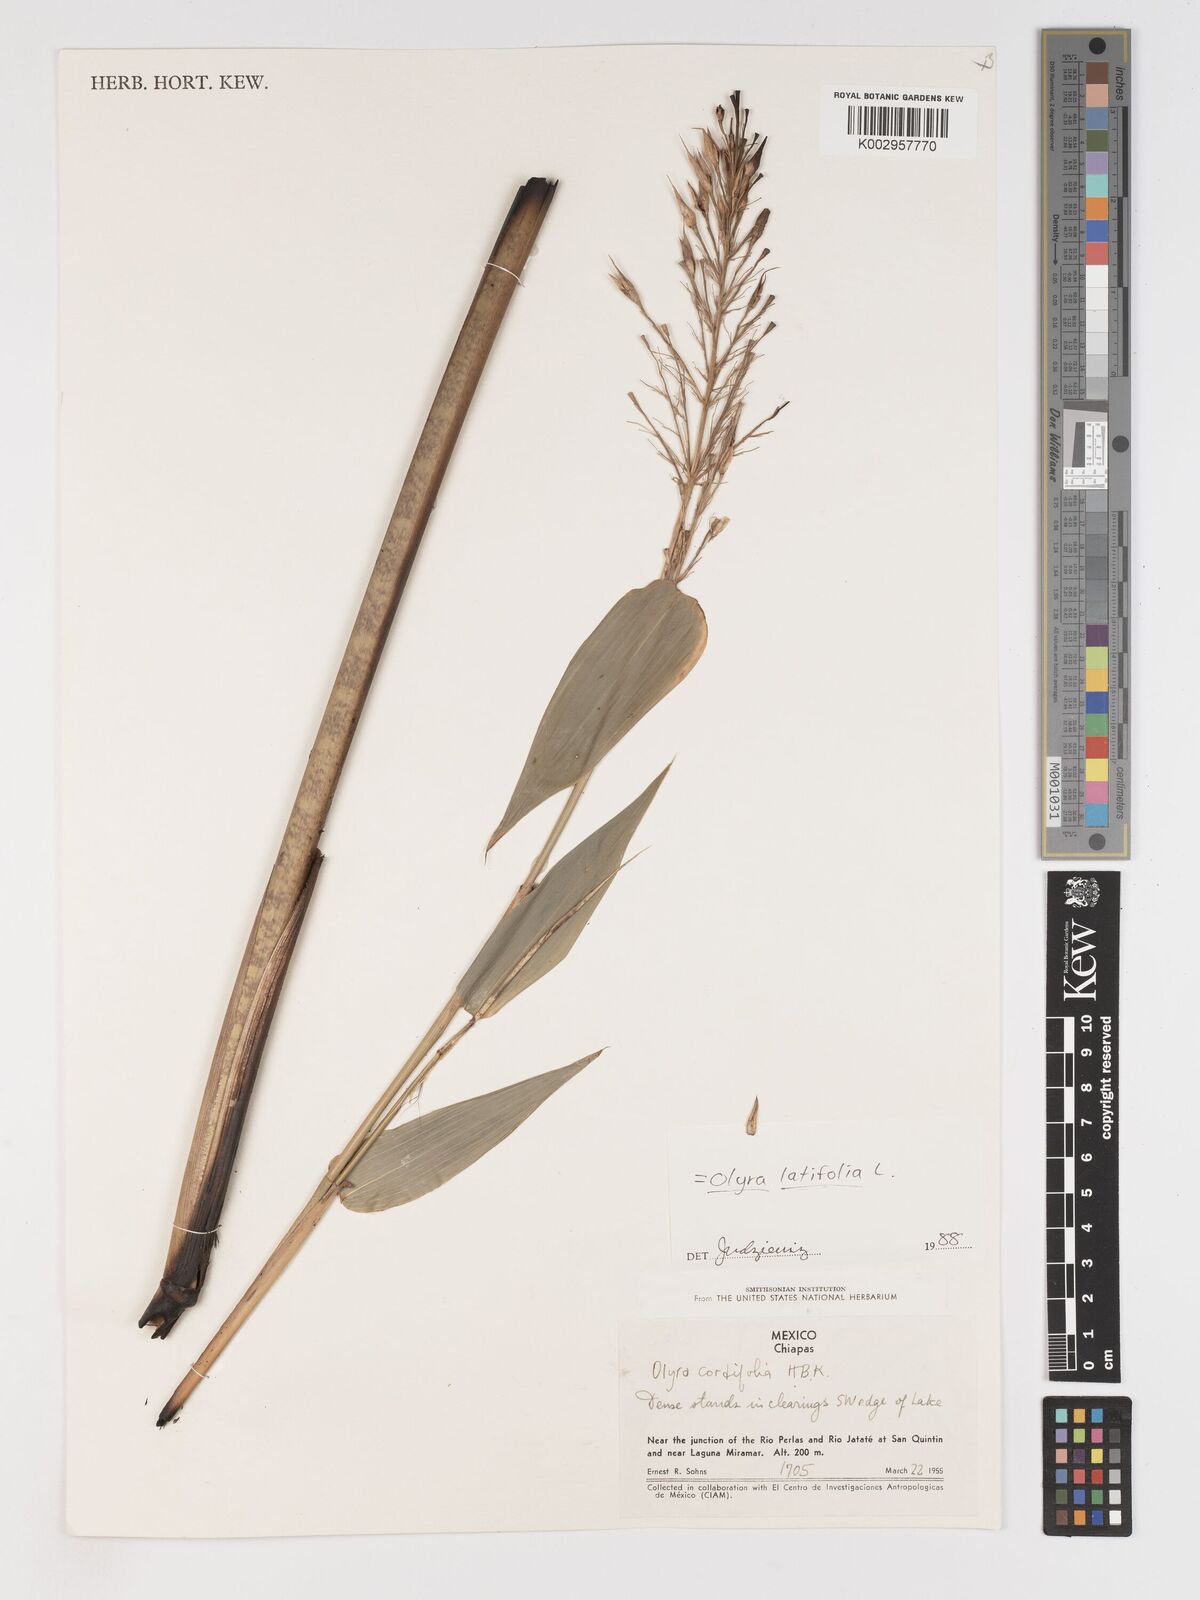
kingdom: Plantae
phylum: Tracheophyta
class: Liliopsida
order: Poales
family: Poaceae
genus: Olyra
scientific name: Olyra latifolia
